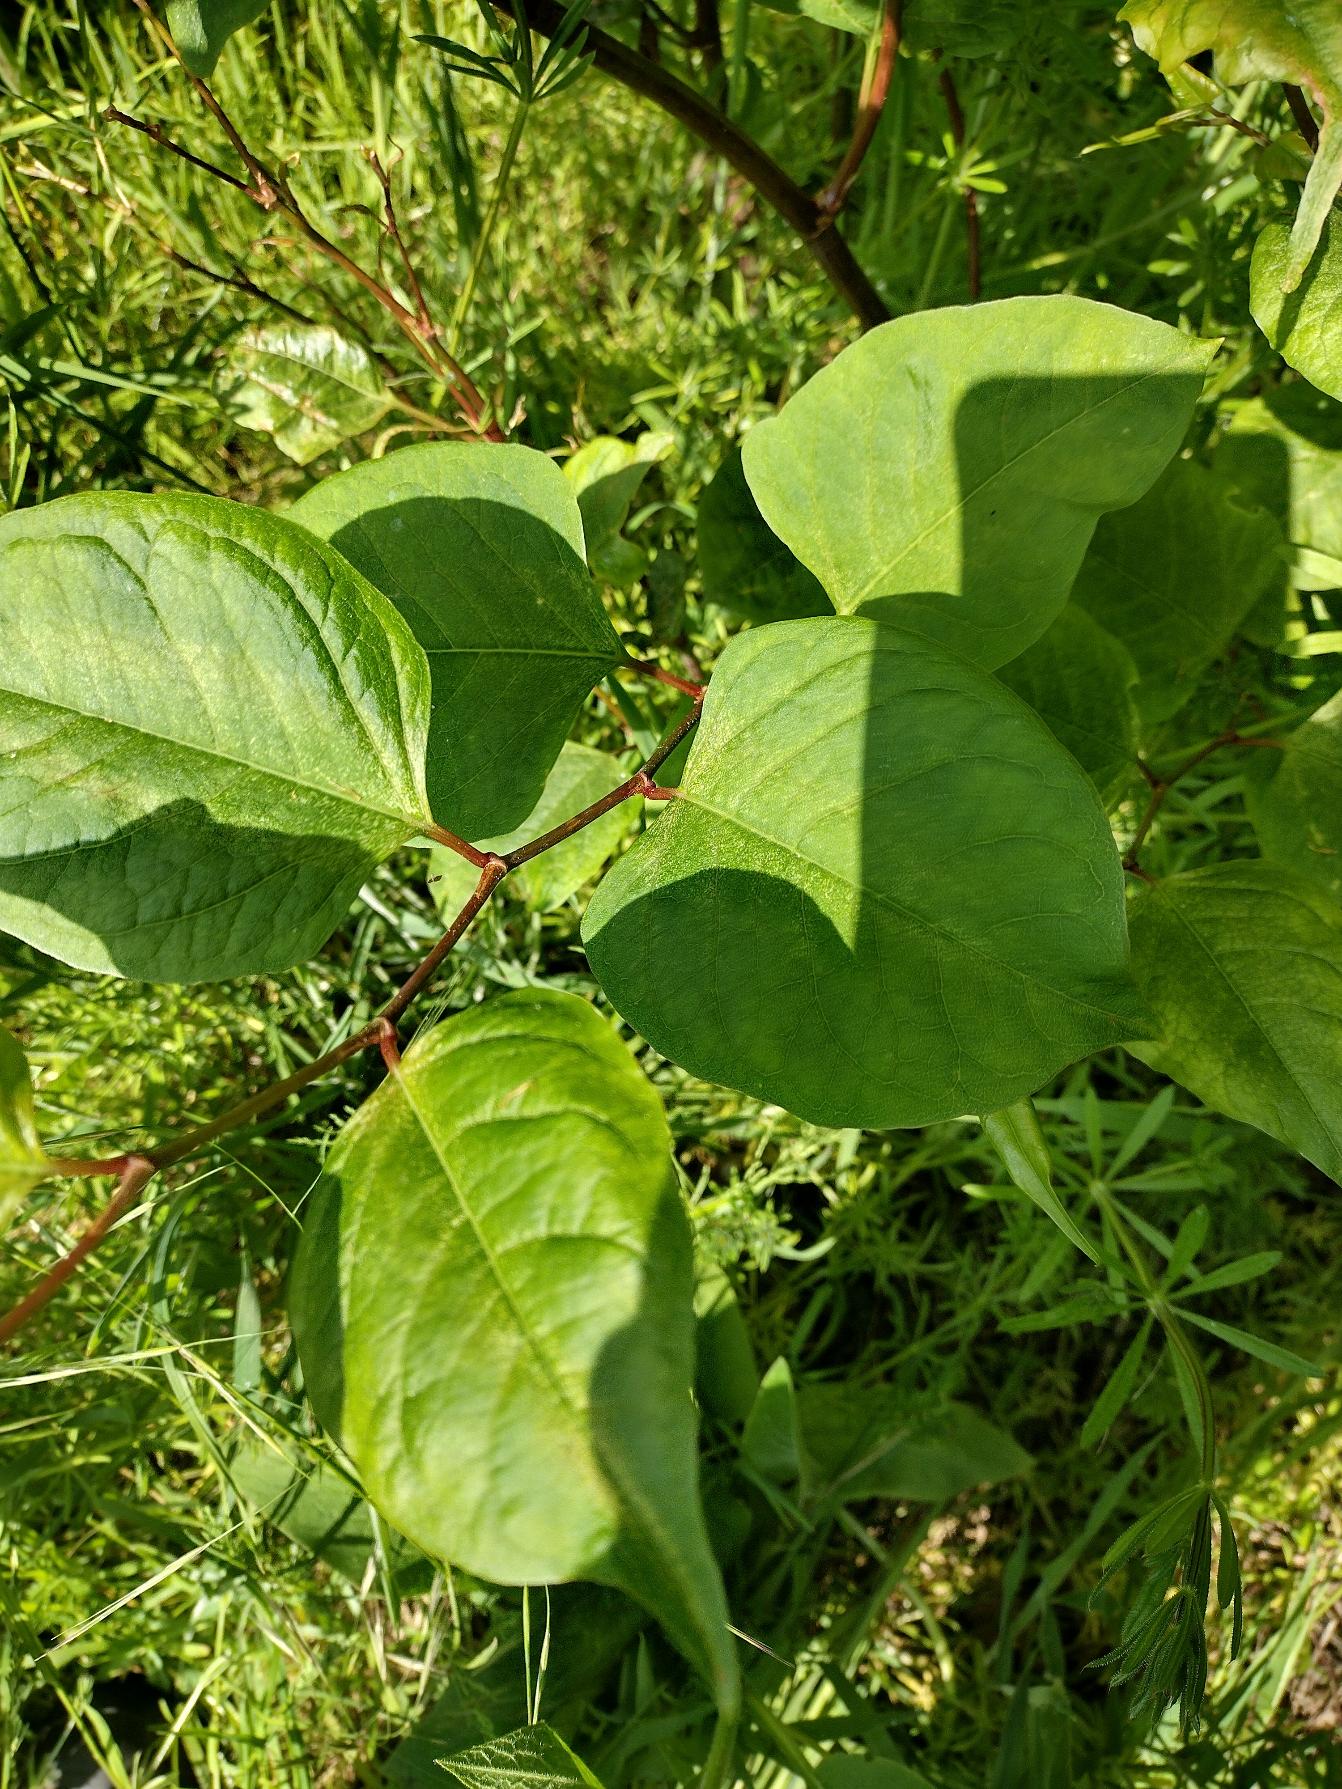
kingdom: Plantae
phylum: Tracheophyta
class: Magnoliopsida
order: Caryophyllales
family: Polygonaceae
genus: Reynoutria
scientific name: Reynoutria japonica
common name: Japan-pileurt
